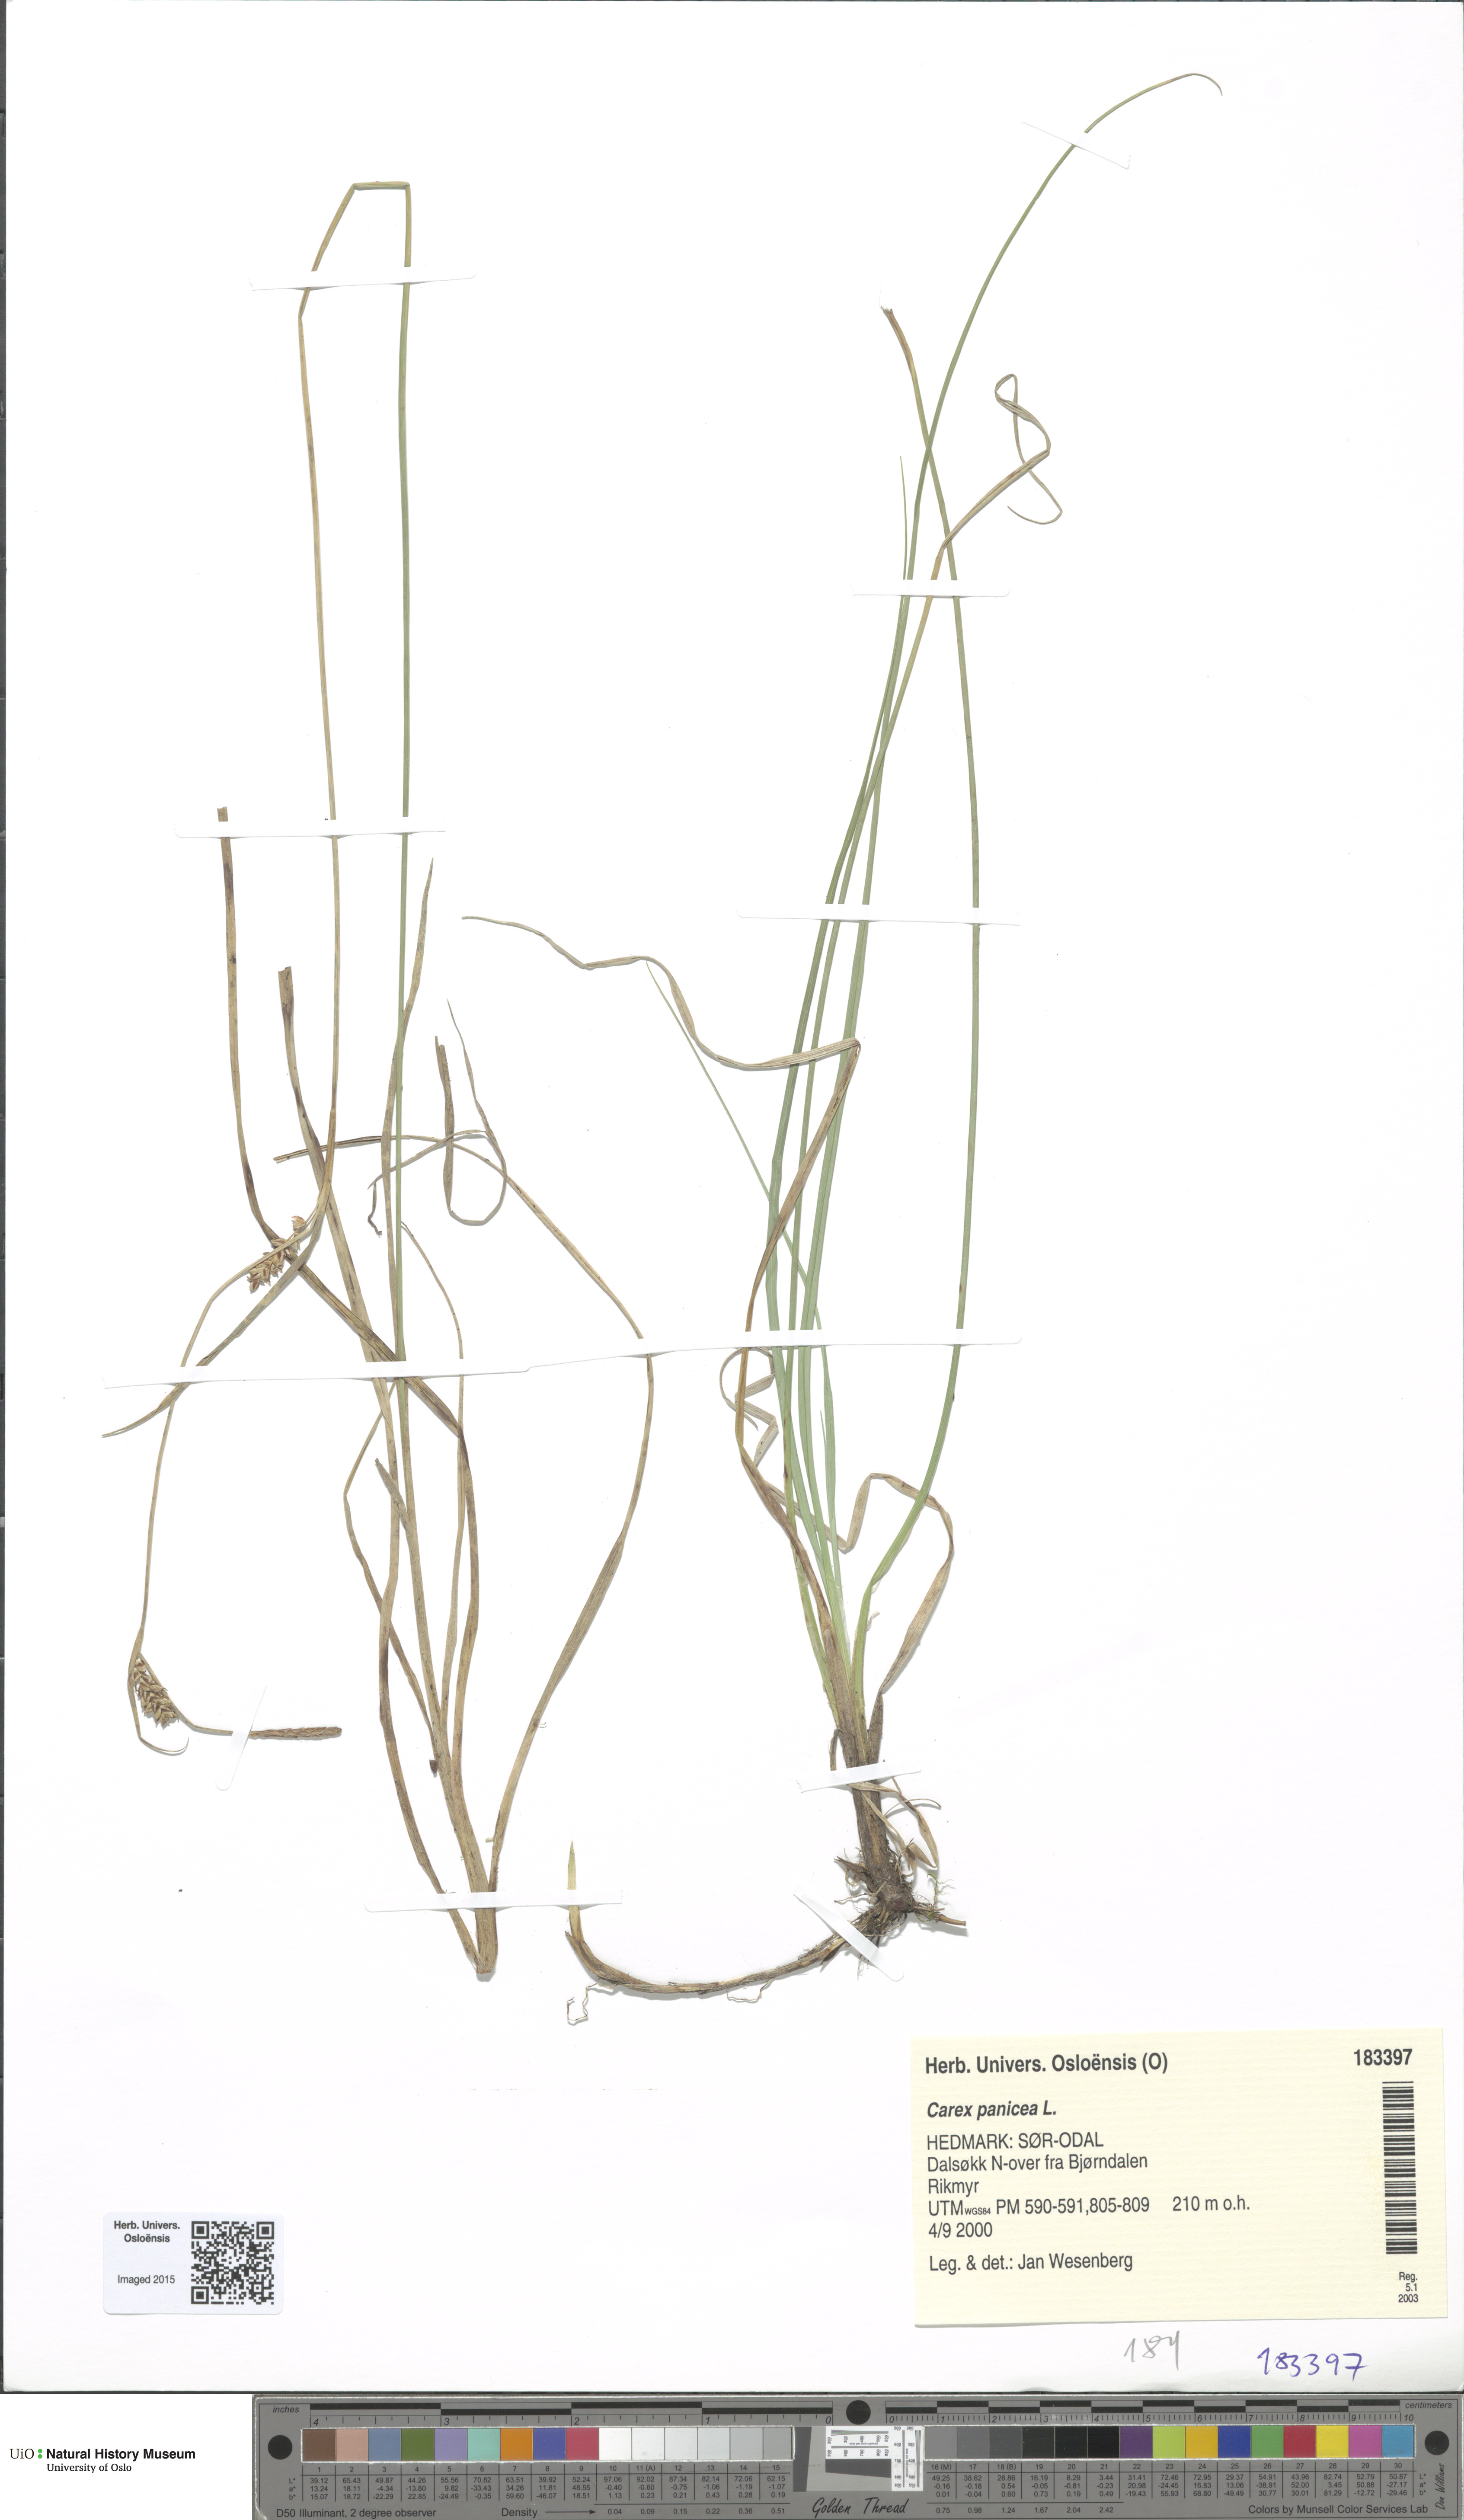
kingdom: Plantae
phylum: Tracheophyta
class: Liliopsida
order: Poales
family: Cyperaceae
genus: Carex
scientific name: Carex panicea
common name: Carnation sedge
